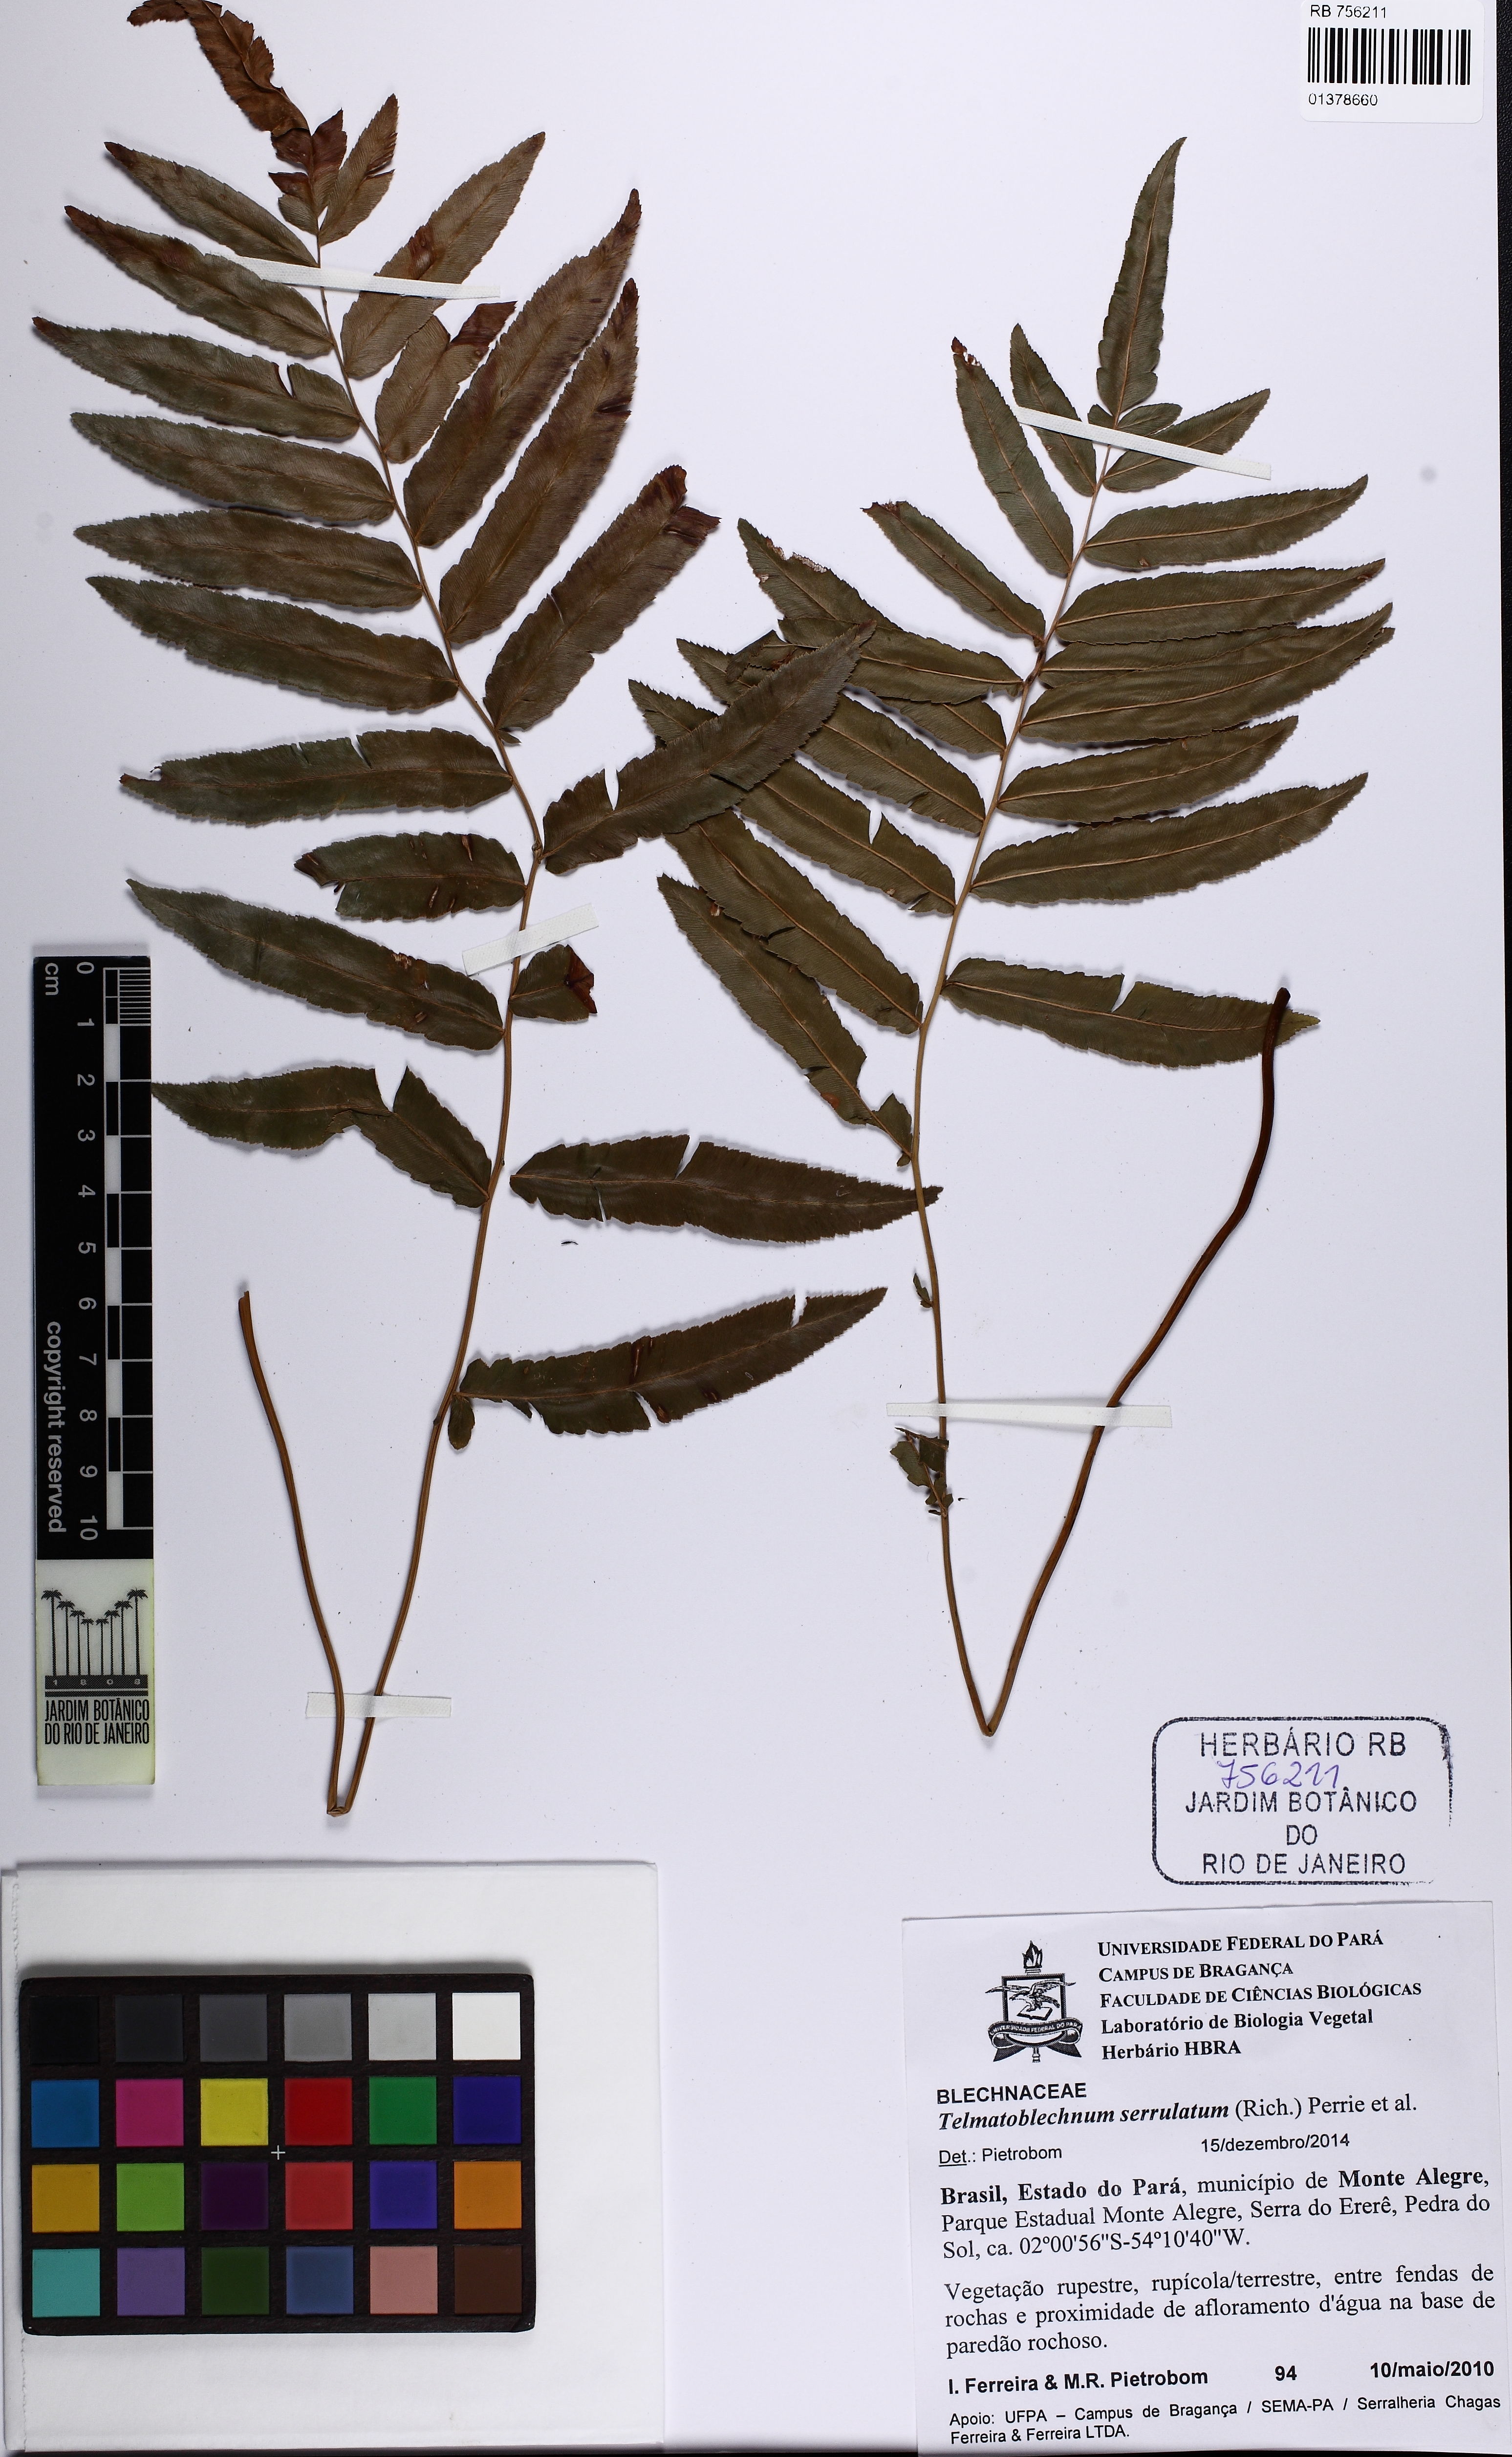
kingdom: Plantae
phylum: Tracheophyta
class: Polypodiopsida
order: Polypodiales
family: Blechnaceae
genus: Telmatoblechnum
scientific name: Telmatoblechnum serrulatum
